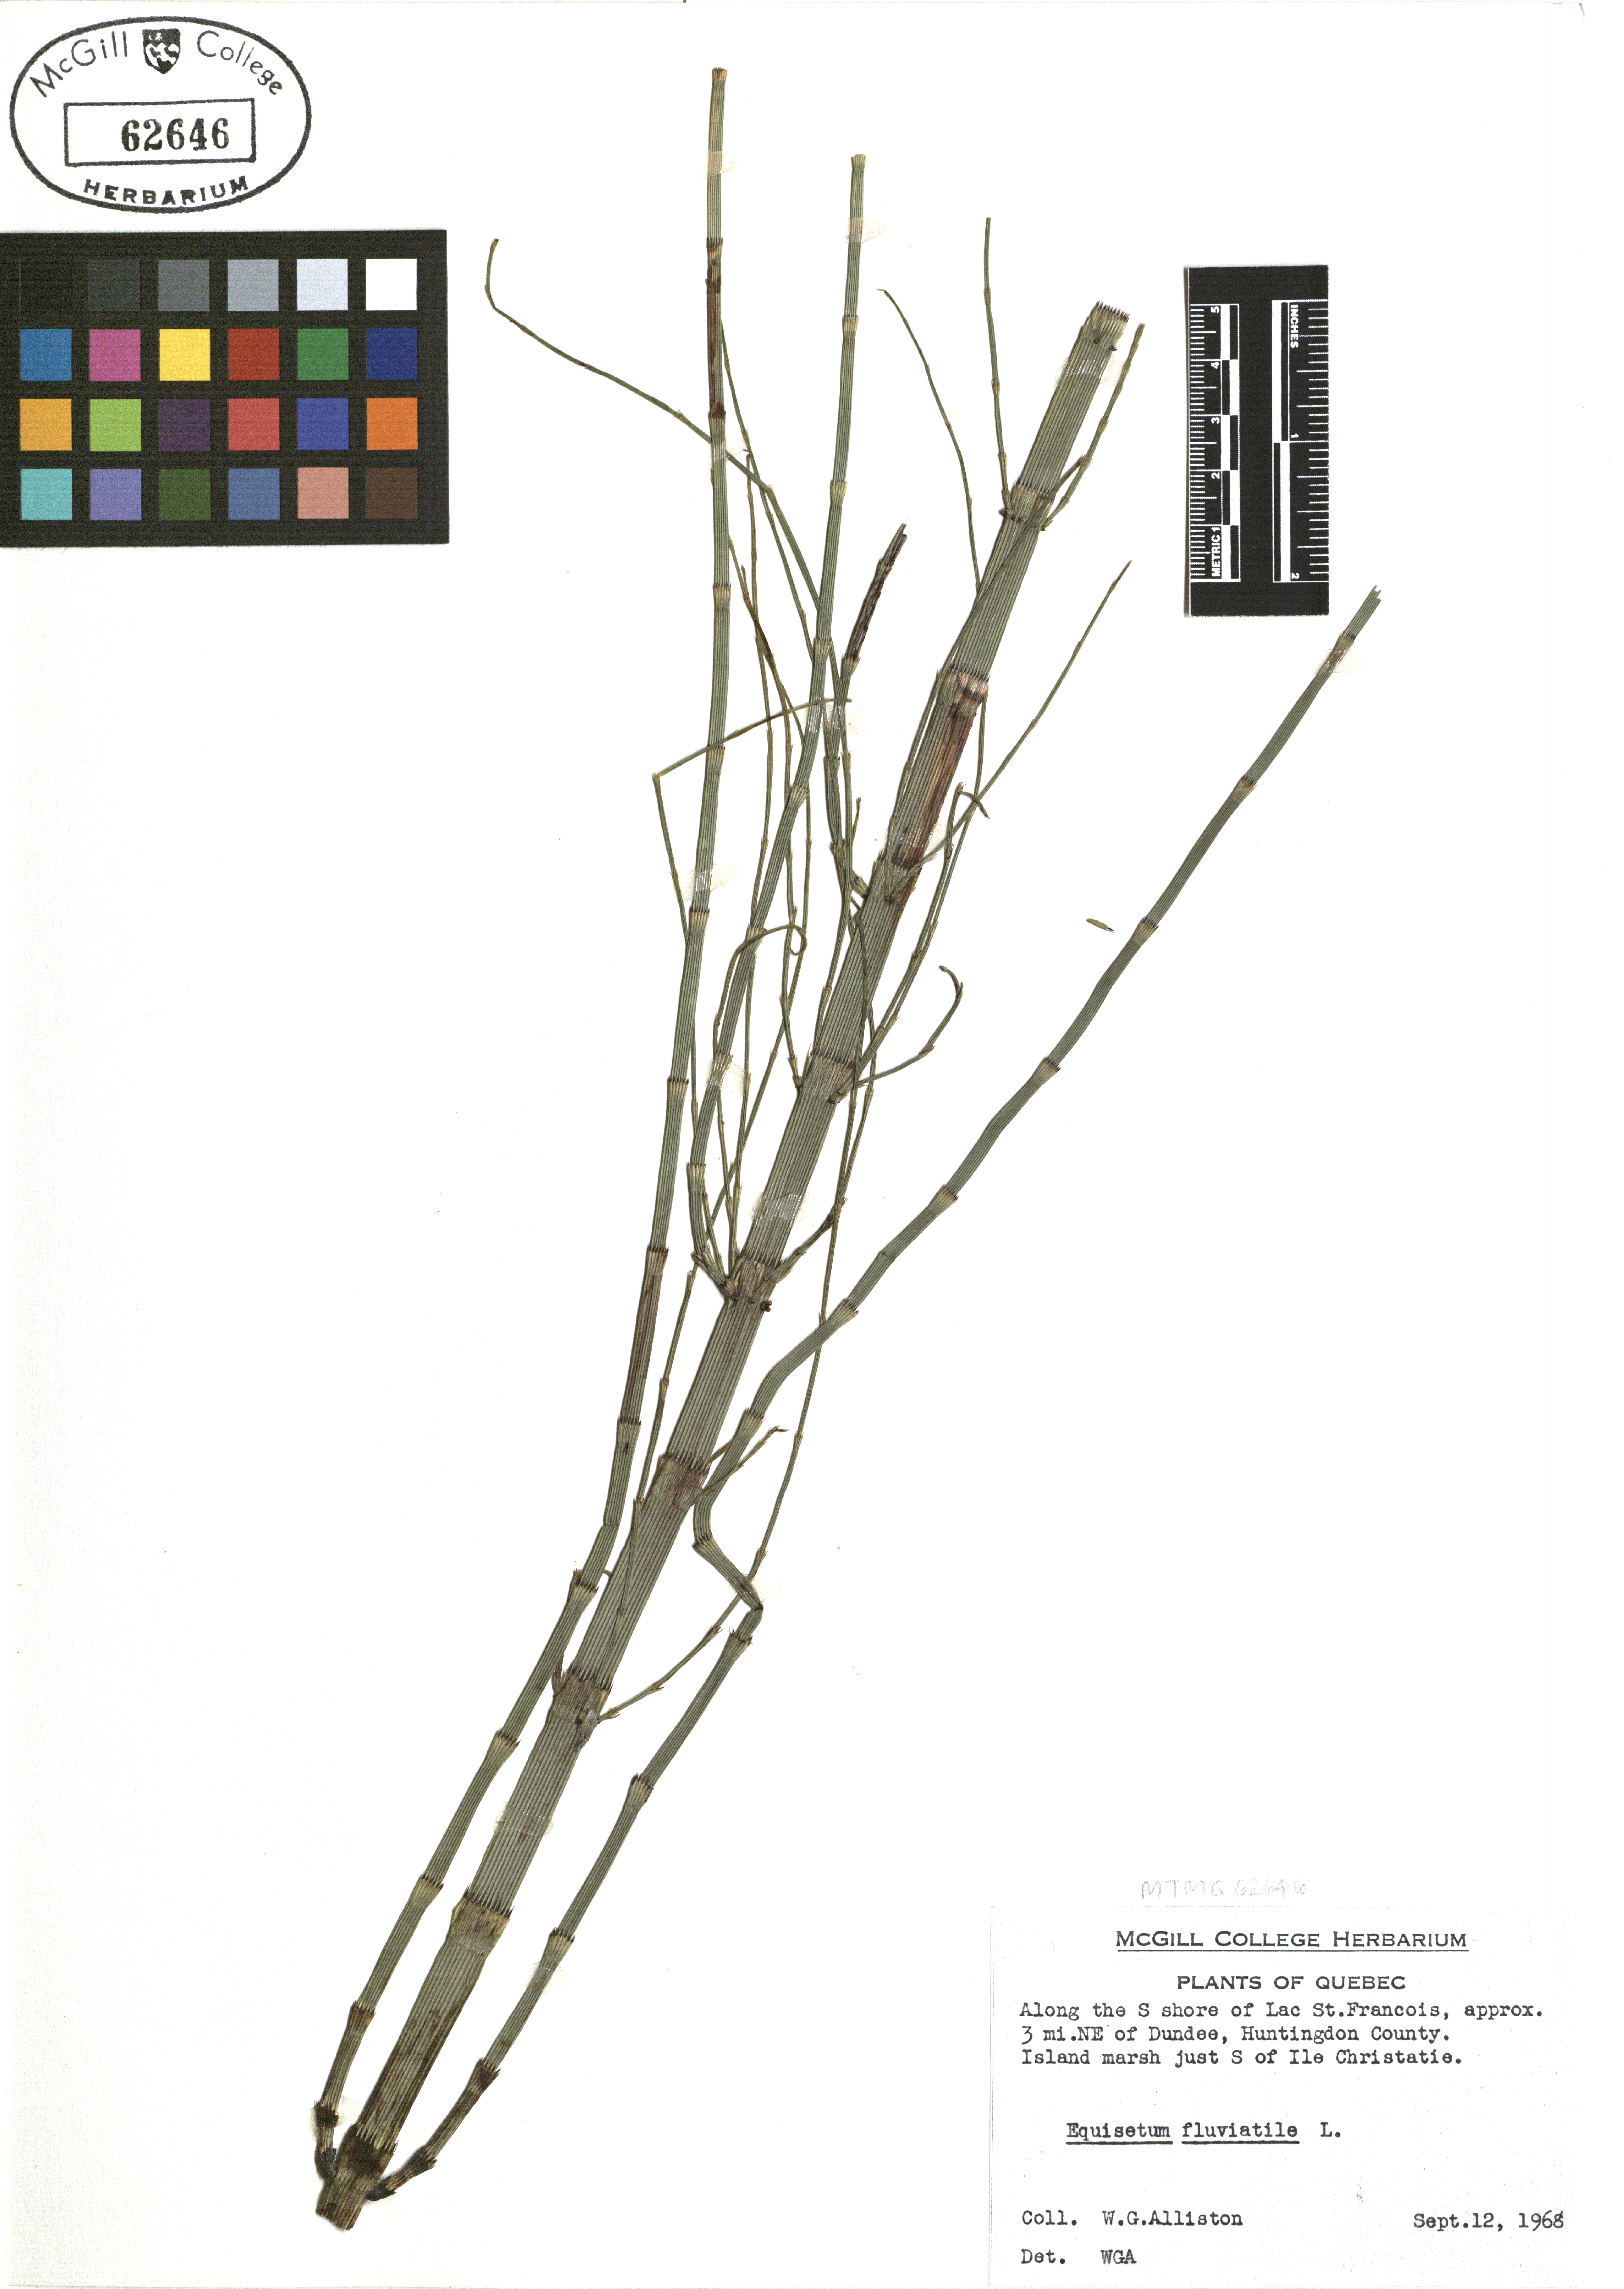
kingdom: Plantae
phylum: Tracheophyta
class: Polypodiopsida
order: Equisetales
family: Equisetaceae
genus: Equisetum
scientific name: Equisetum fluviatile
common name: Water horsetail
